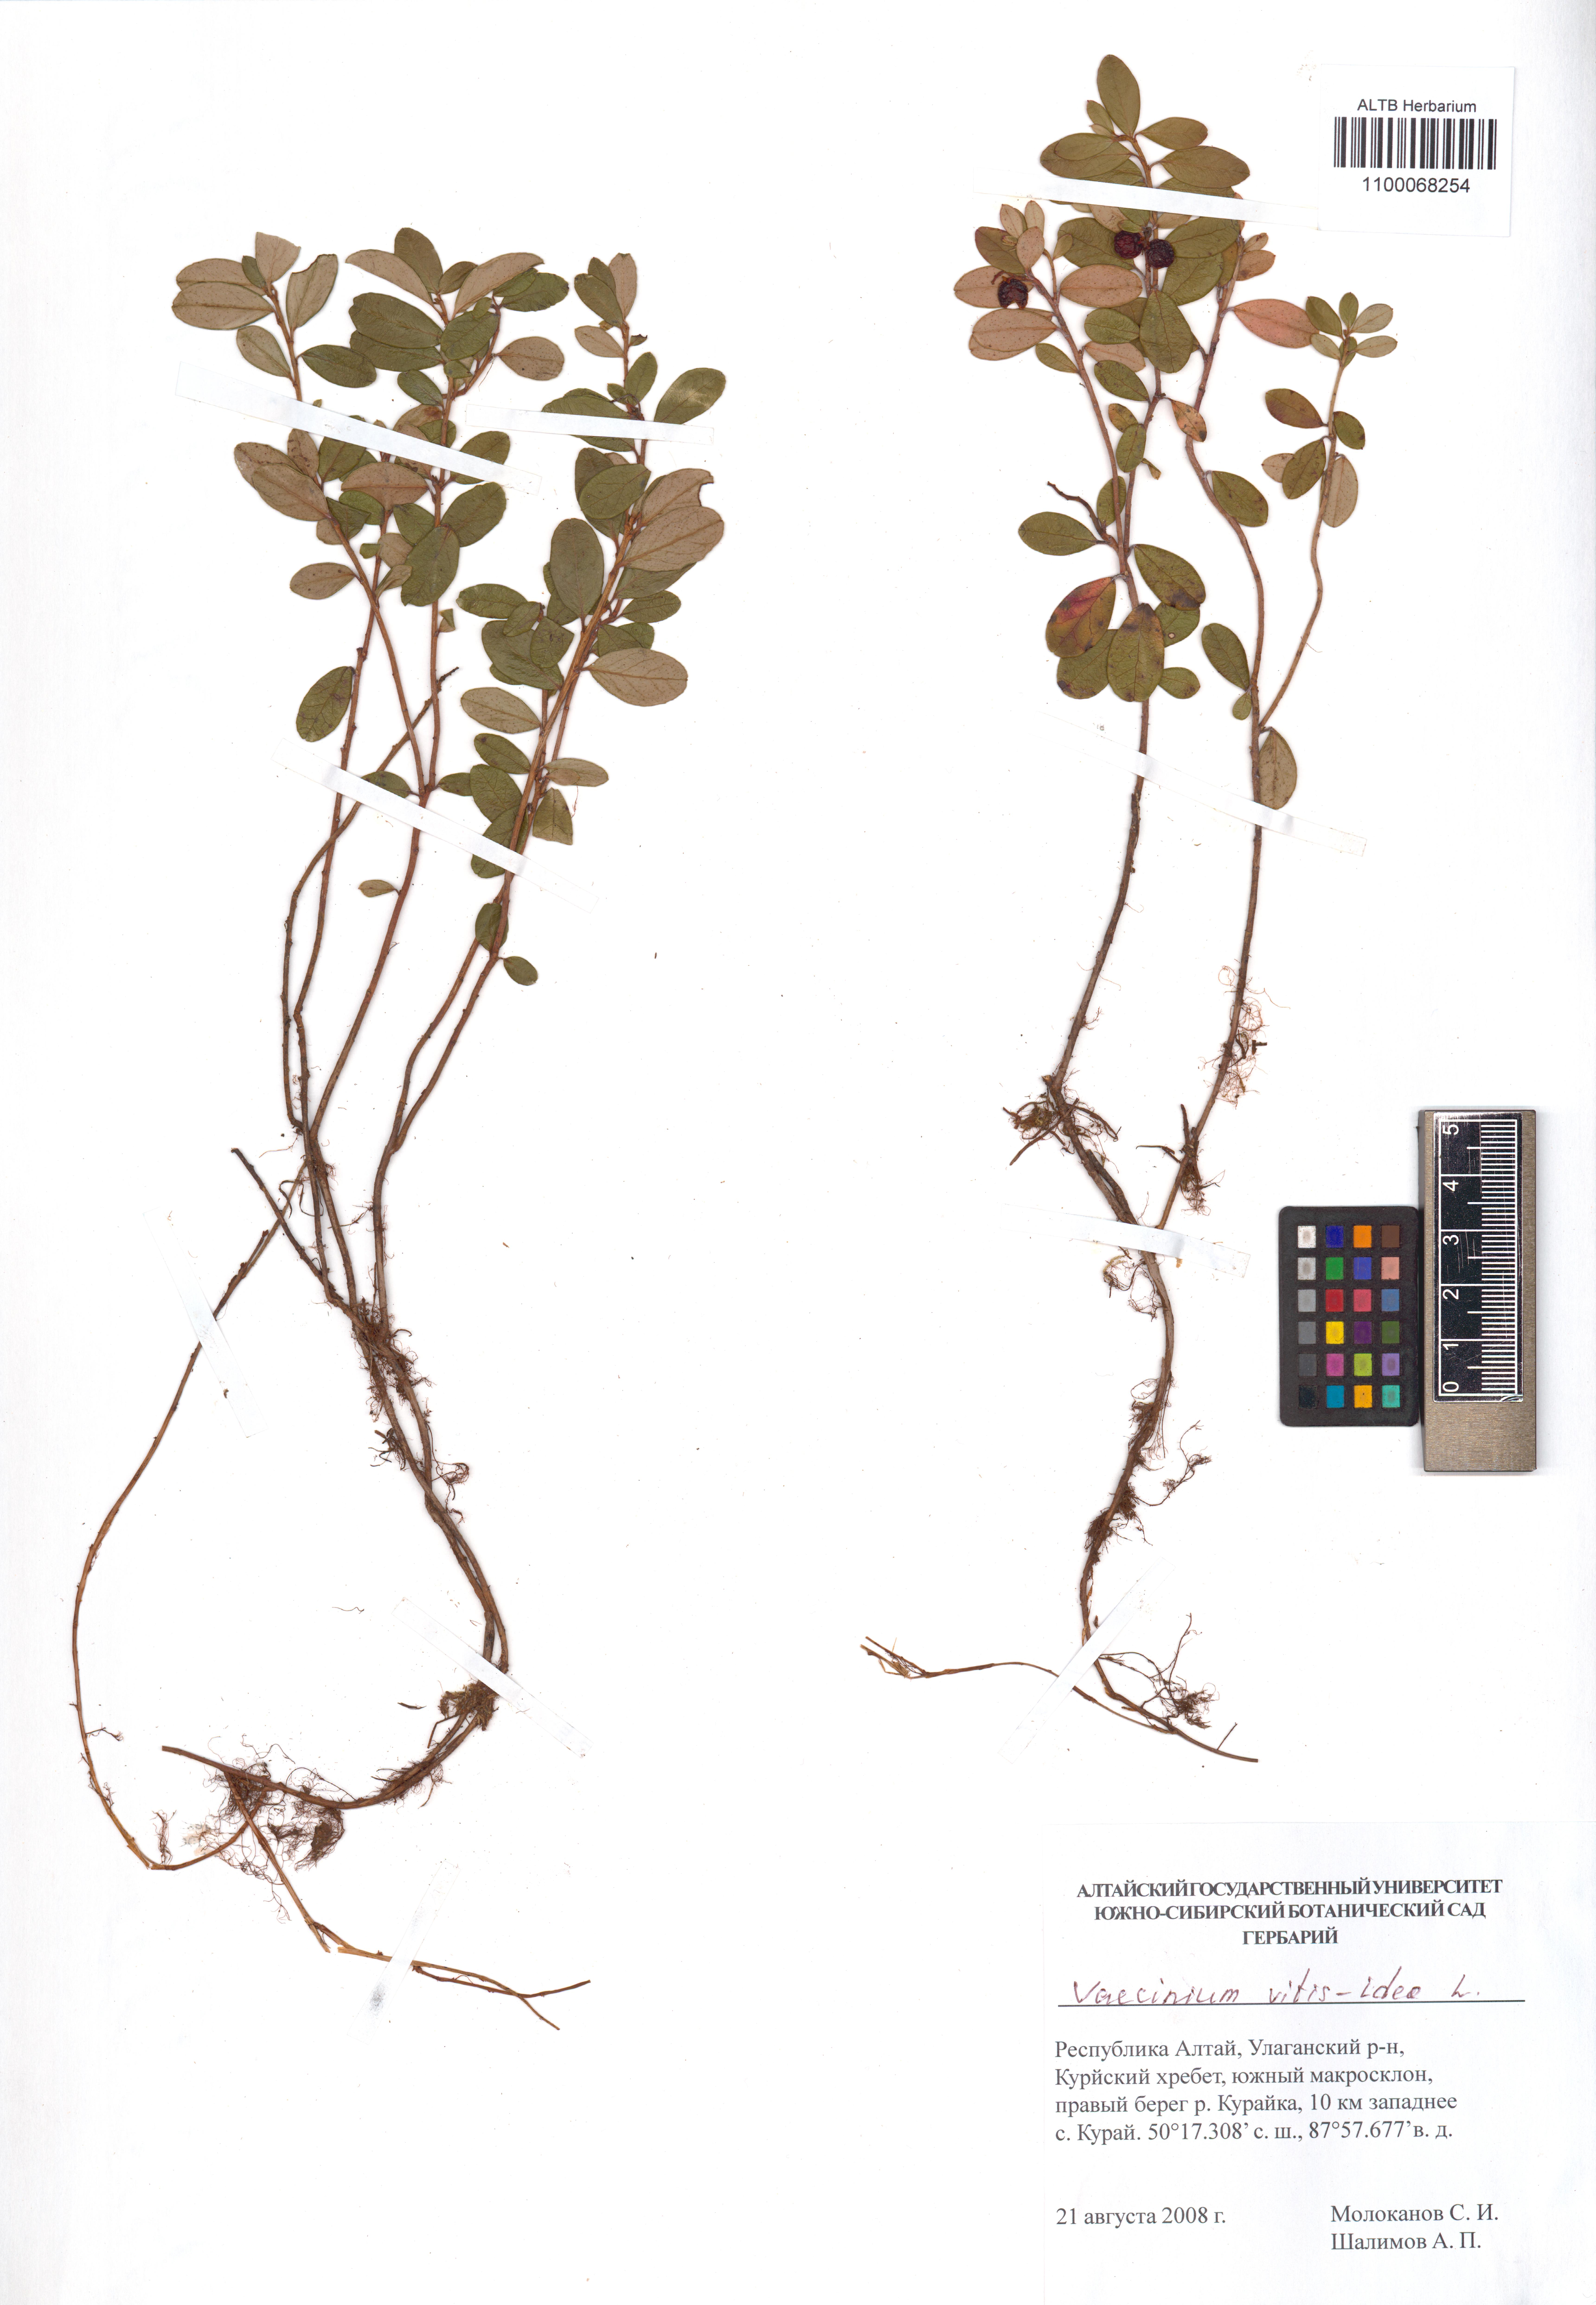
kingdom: Plantae
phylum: Tracheophyta
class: Magnoliopsida
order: Ericales
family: Ericaceae
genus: Vaccinium
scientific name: Vaccinium vitis-idaea
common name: Cowberry
